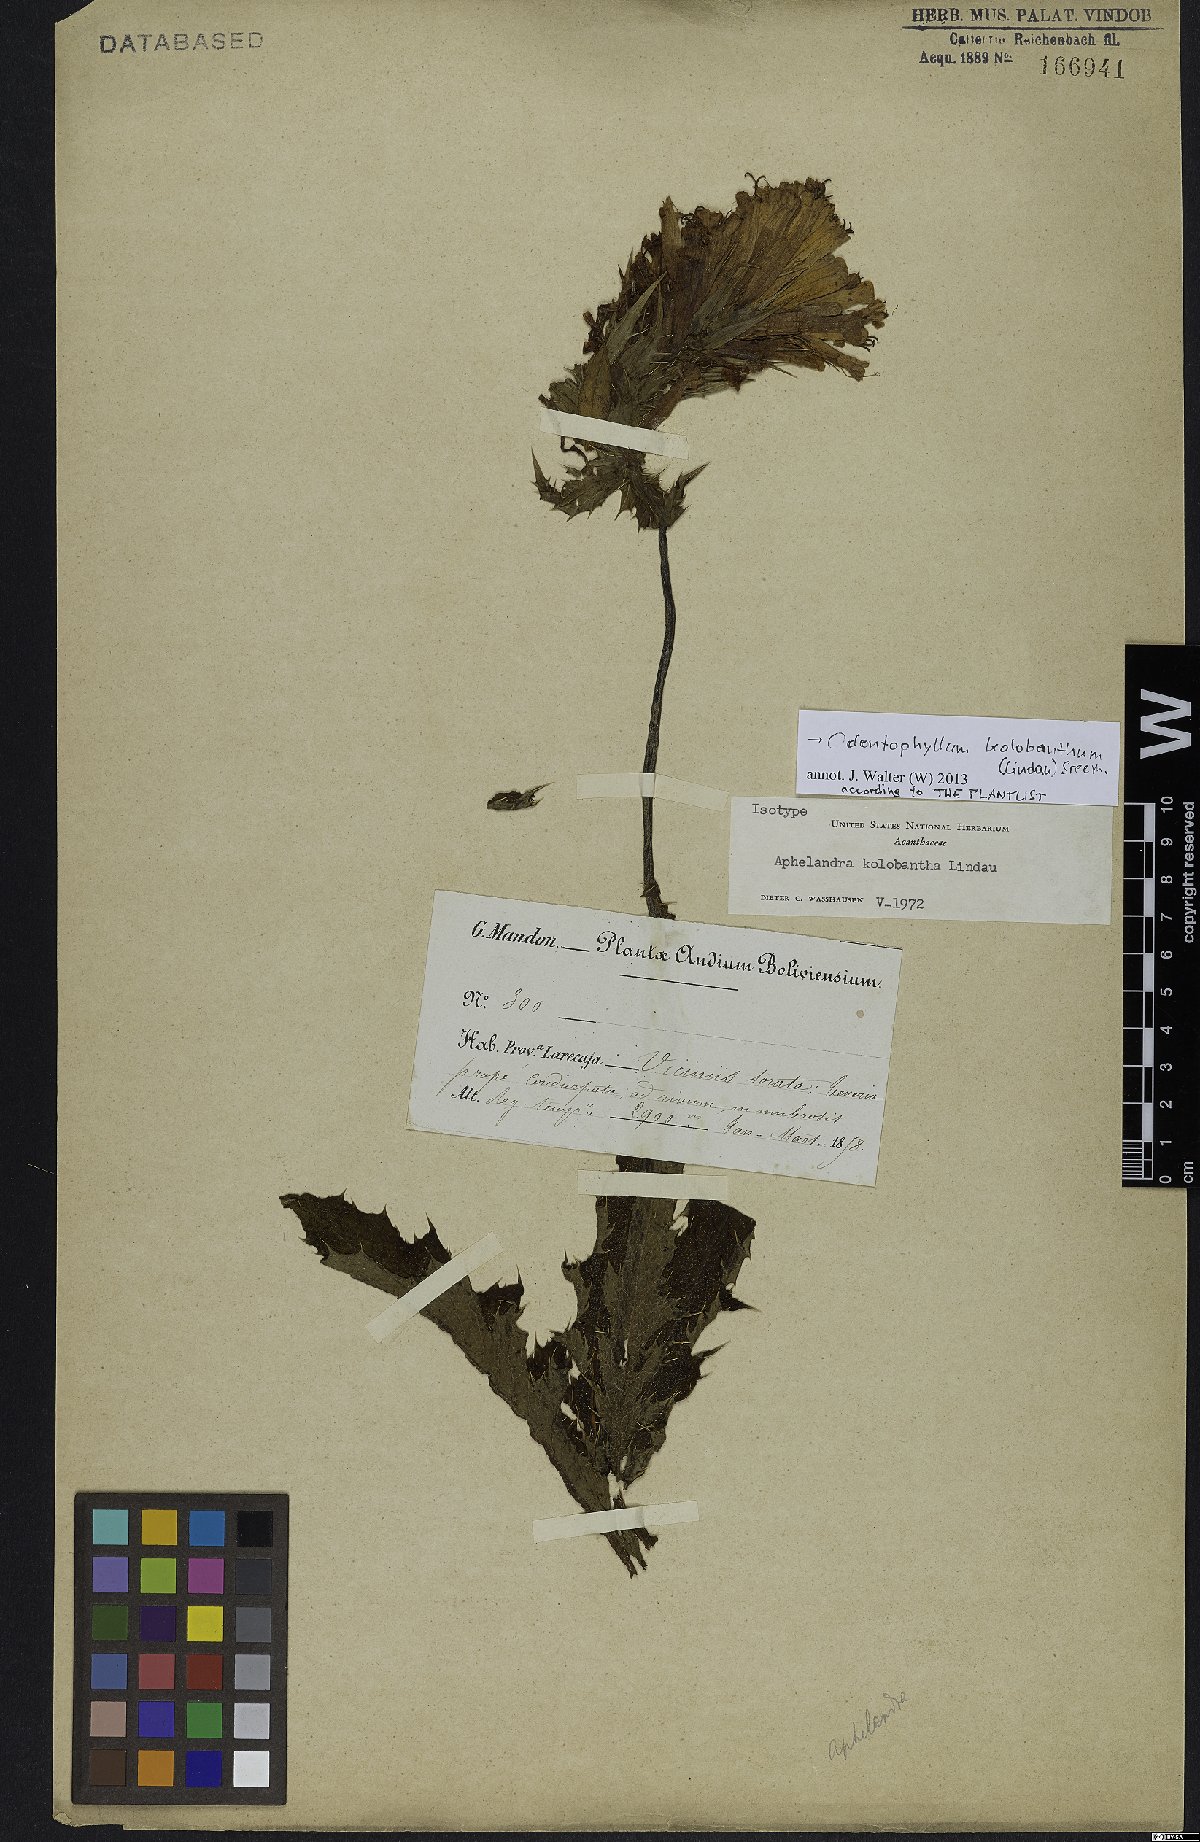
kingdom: Plantae
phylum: Tracheophyta
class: Magnoliopsida
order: Lamiales
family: Acanthaceae
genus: Aphelandra
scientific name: Aphelandra kolobantha
